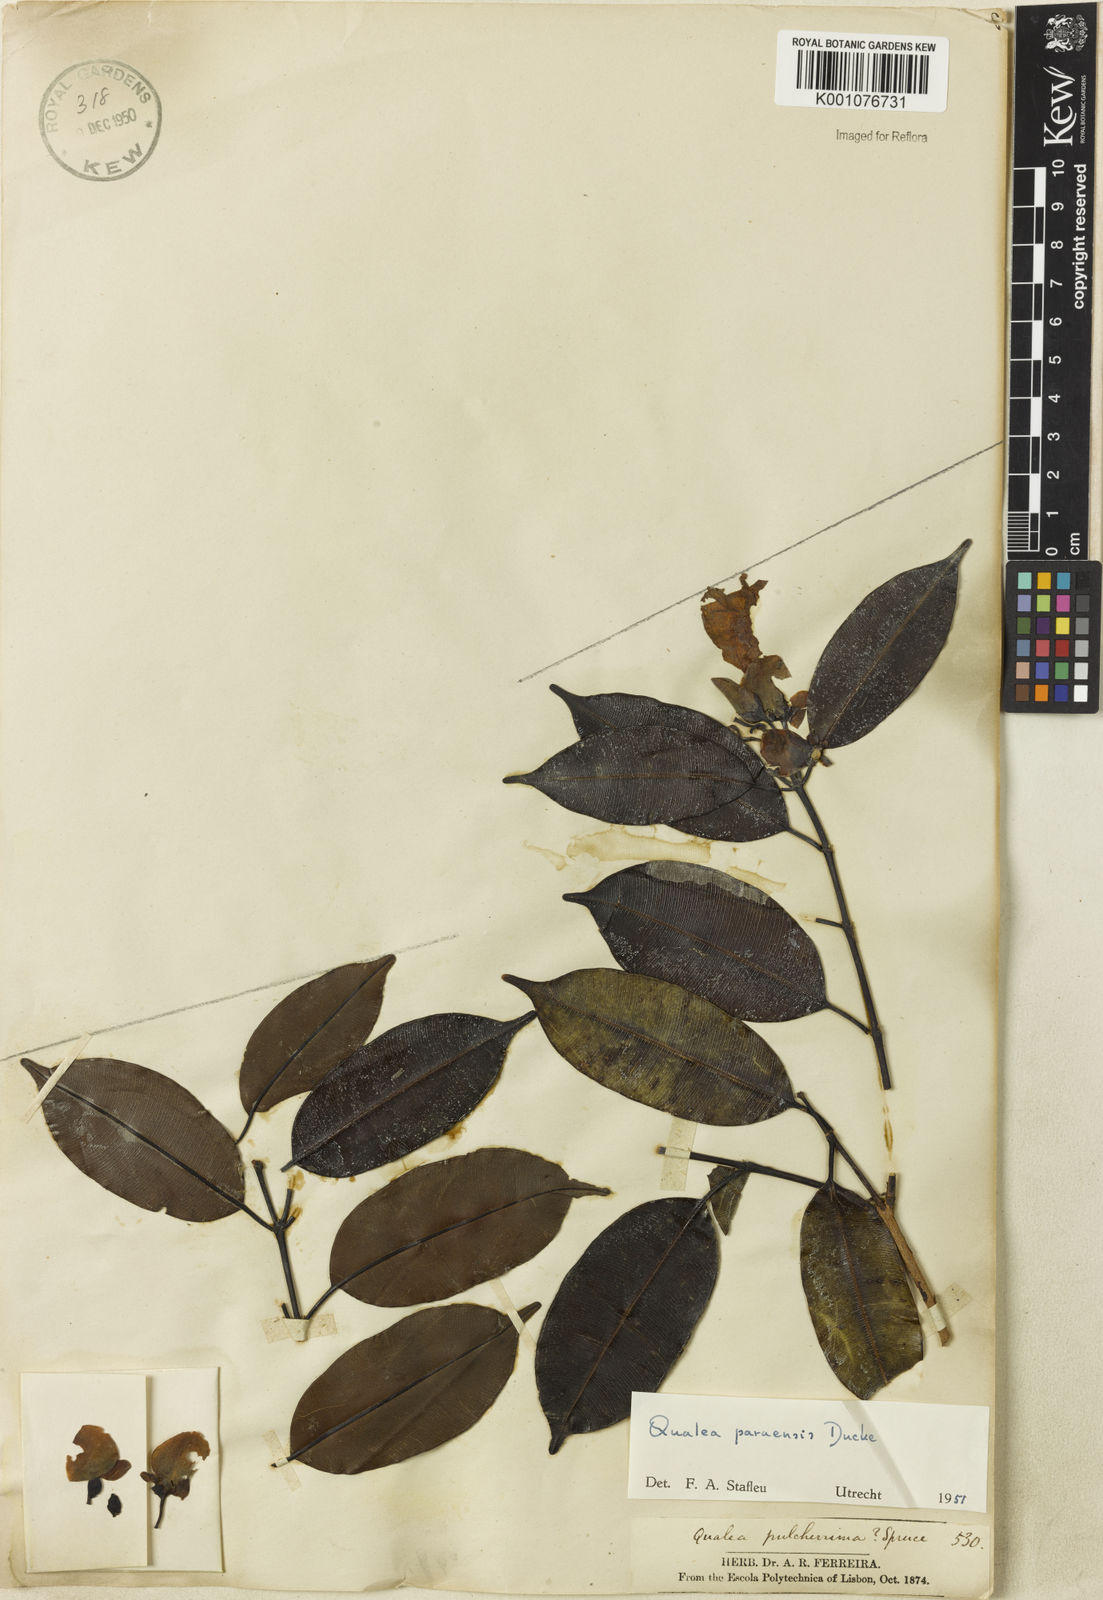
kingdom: Plantae
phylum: Tracheophyta
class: Magnoliopsida
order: Myrtales
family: Vochysiaceae
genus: Qualea
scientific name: Qualea paraensis
